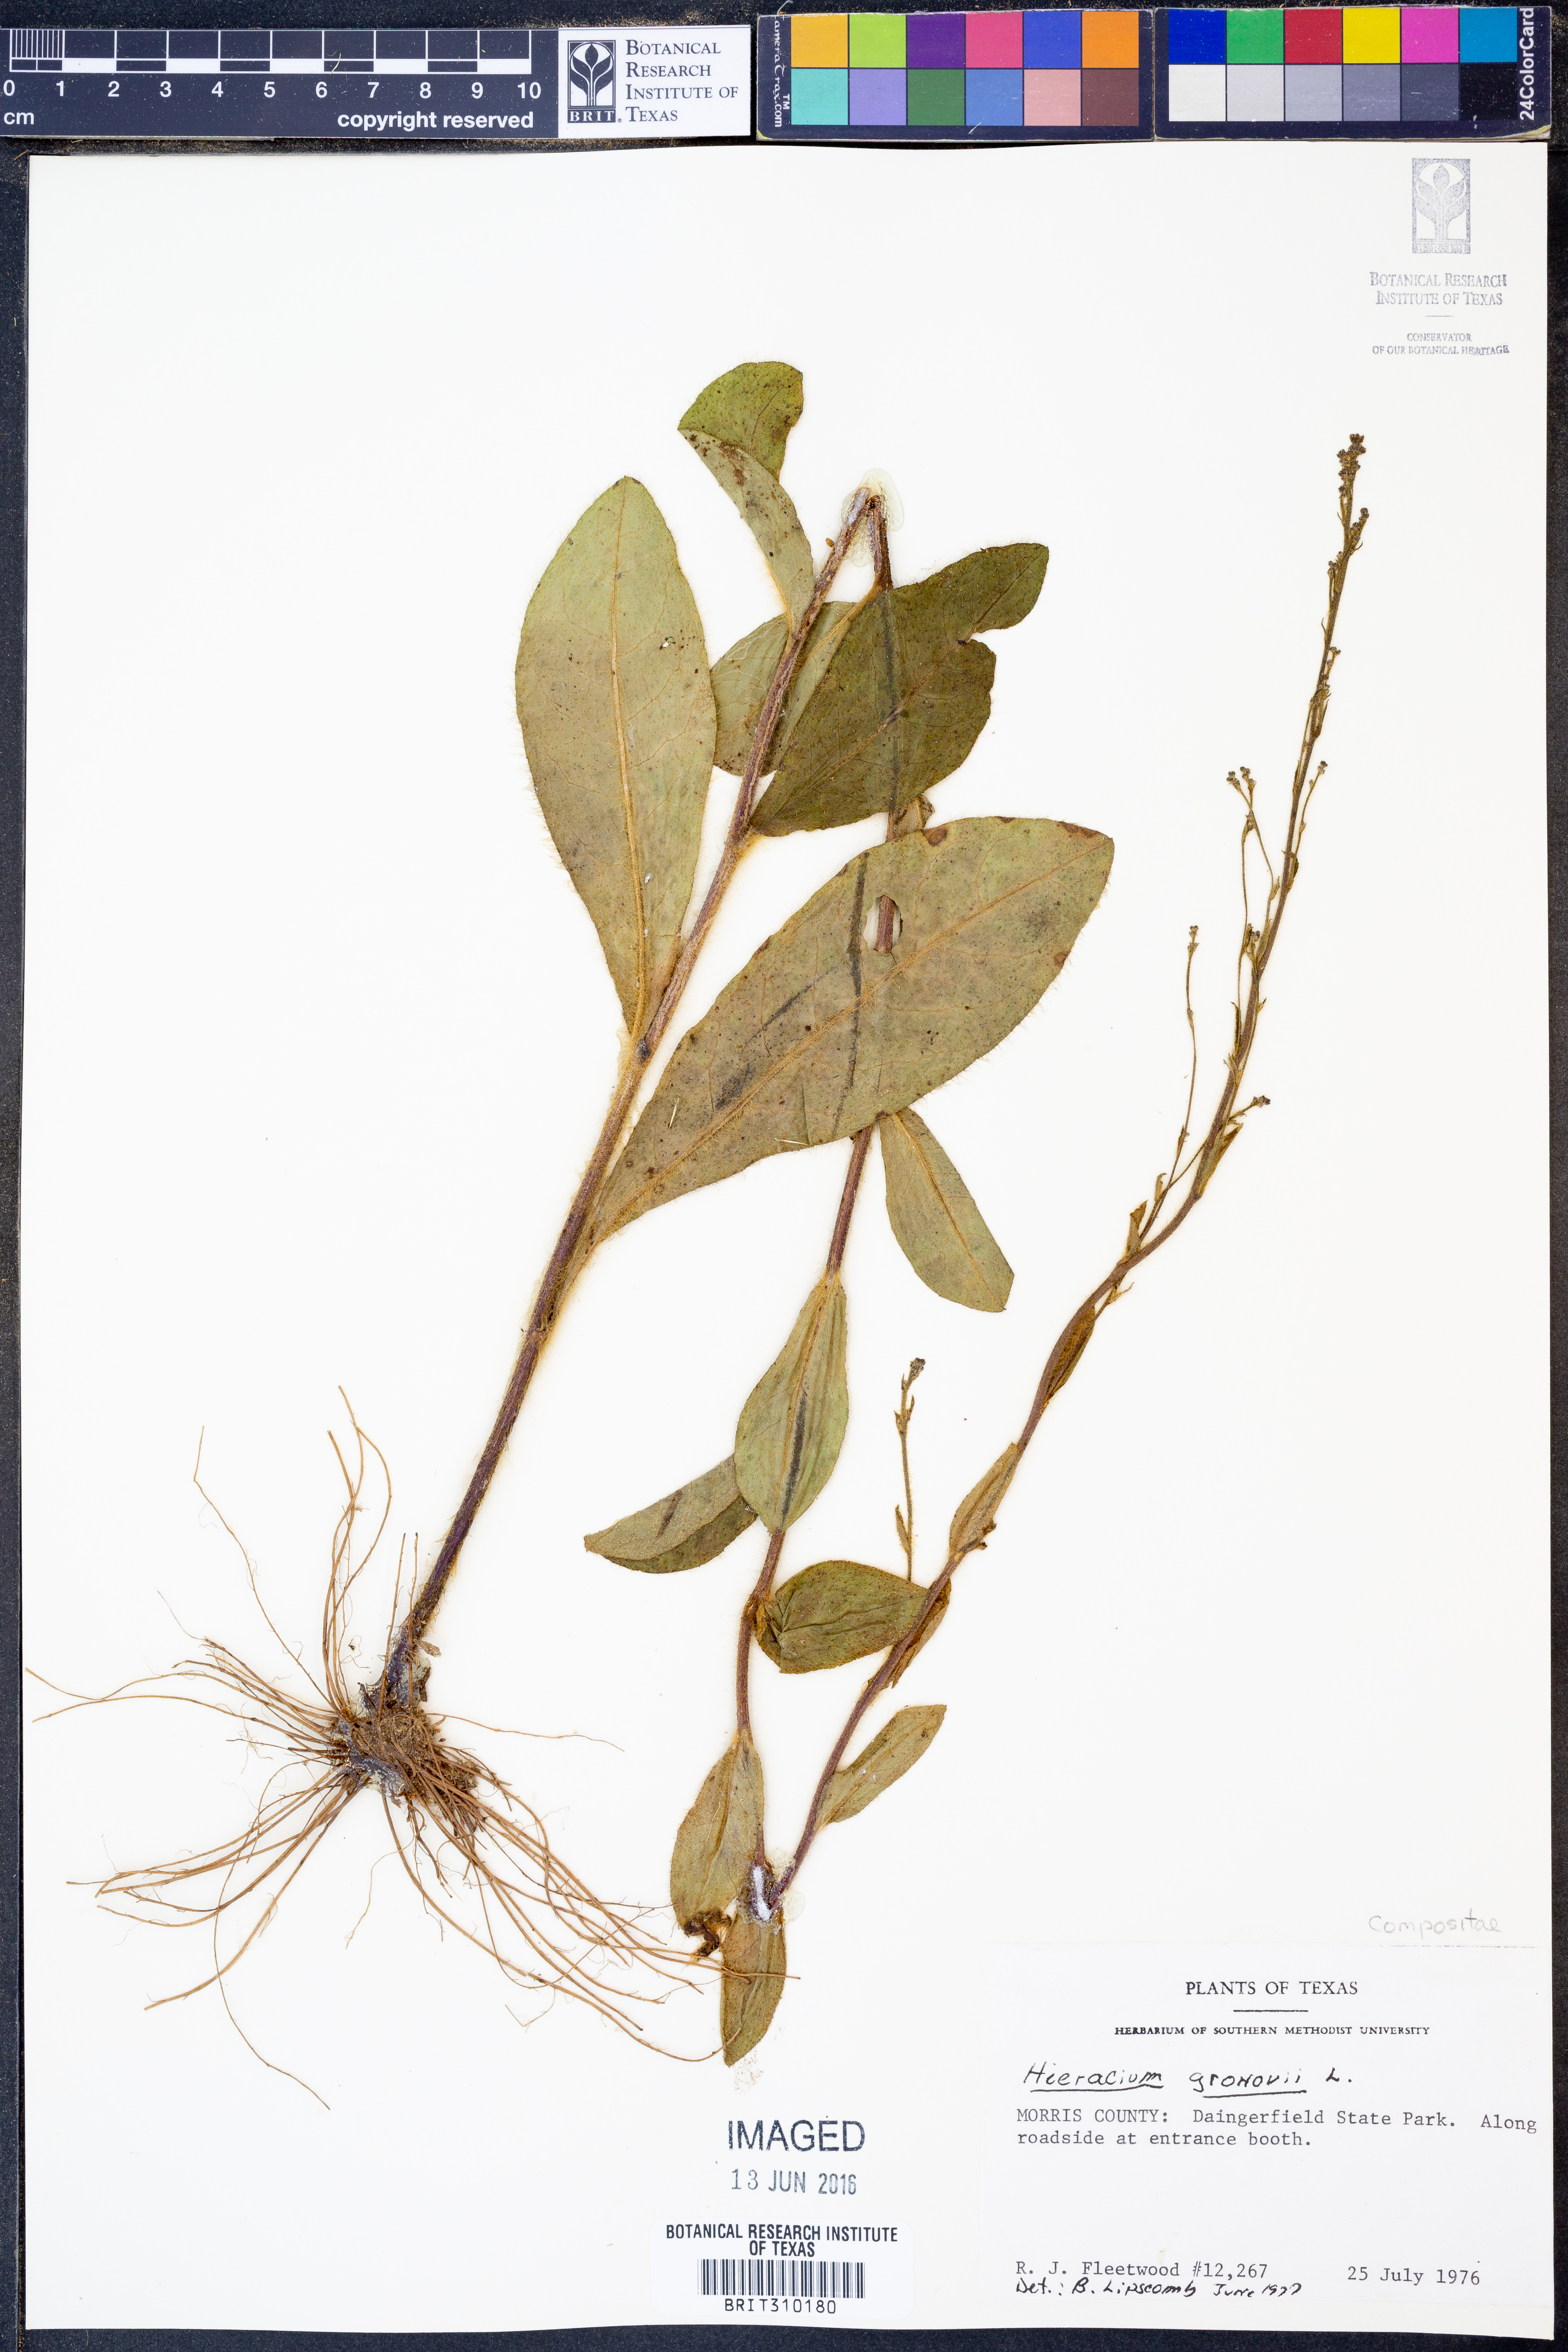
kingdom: Plantae
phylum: Tracheophyta
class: Magnoliopsida
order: Asterales
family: Asteraceae
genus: Hieracium
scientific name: Hieracium gronovii
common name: Beaked hawkweed
